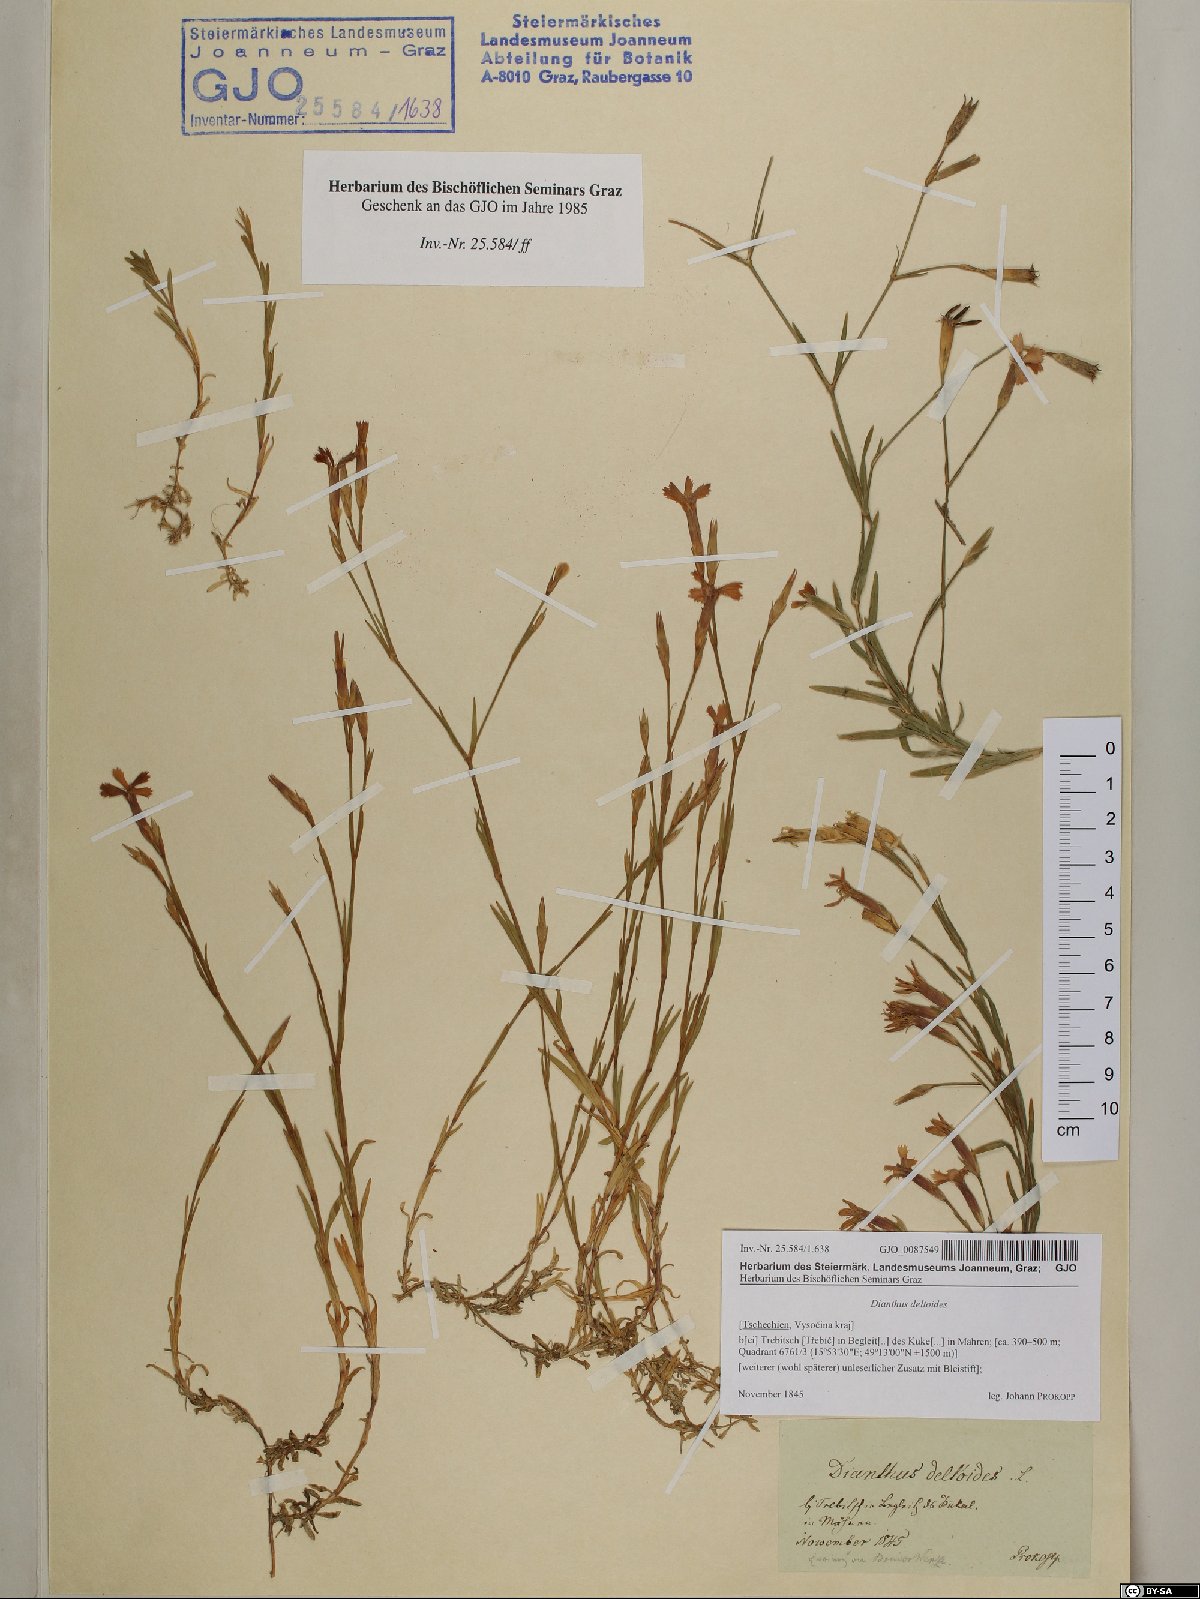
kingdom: Plantae
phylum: Tracheophyta
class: Magnoliopsida
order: Caryophyllales
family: Caryophyllaceae
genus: Dianthus
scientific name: Dianthus deltoides
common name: Maiden pink
